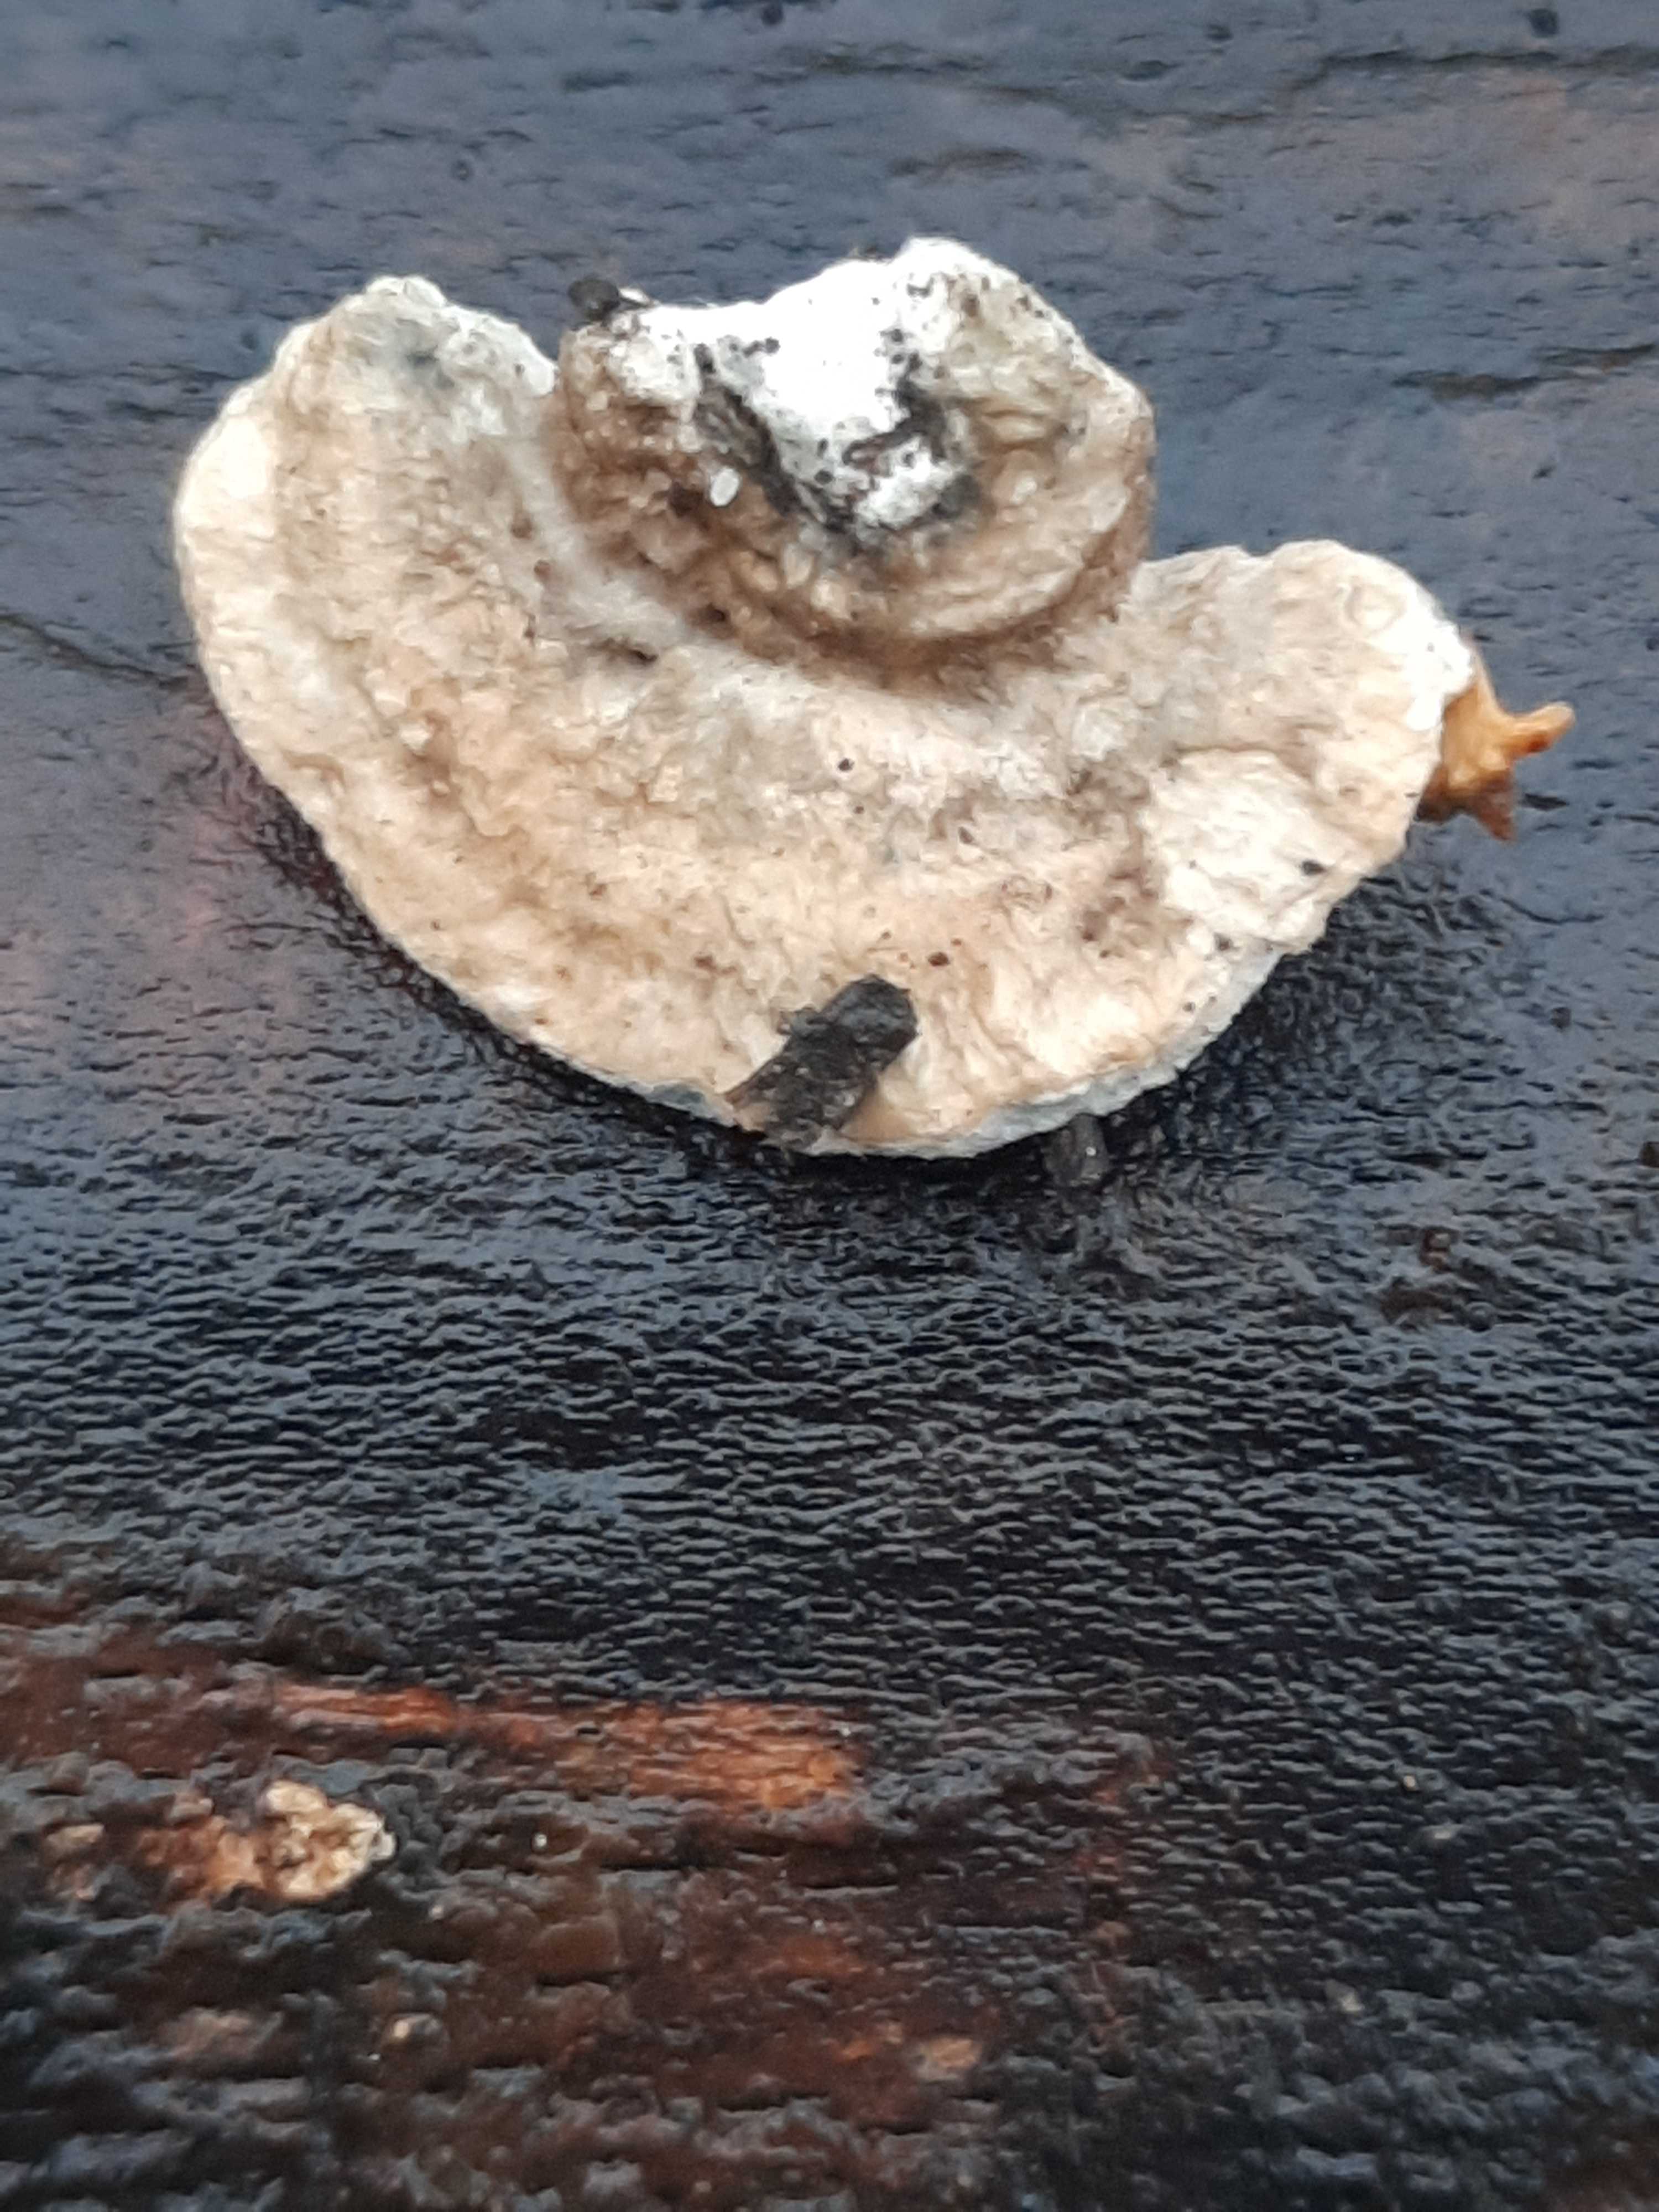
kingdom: Fungi
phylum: Basidiomycota
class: Agaricomycetes
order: Polyporales
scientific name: Polyporales
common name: poresvampordenen
